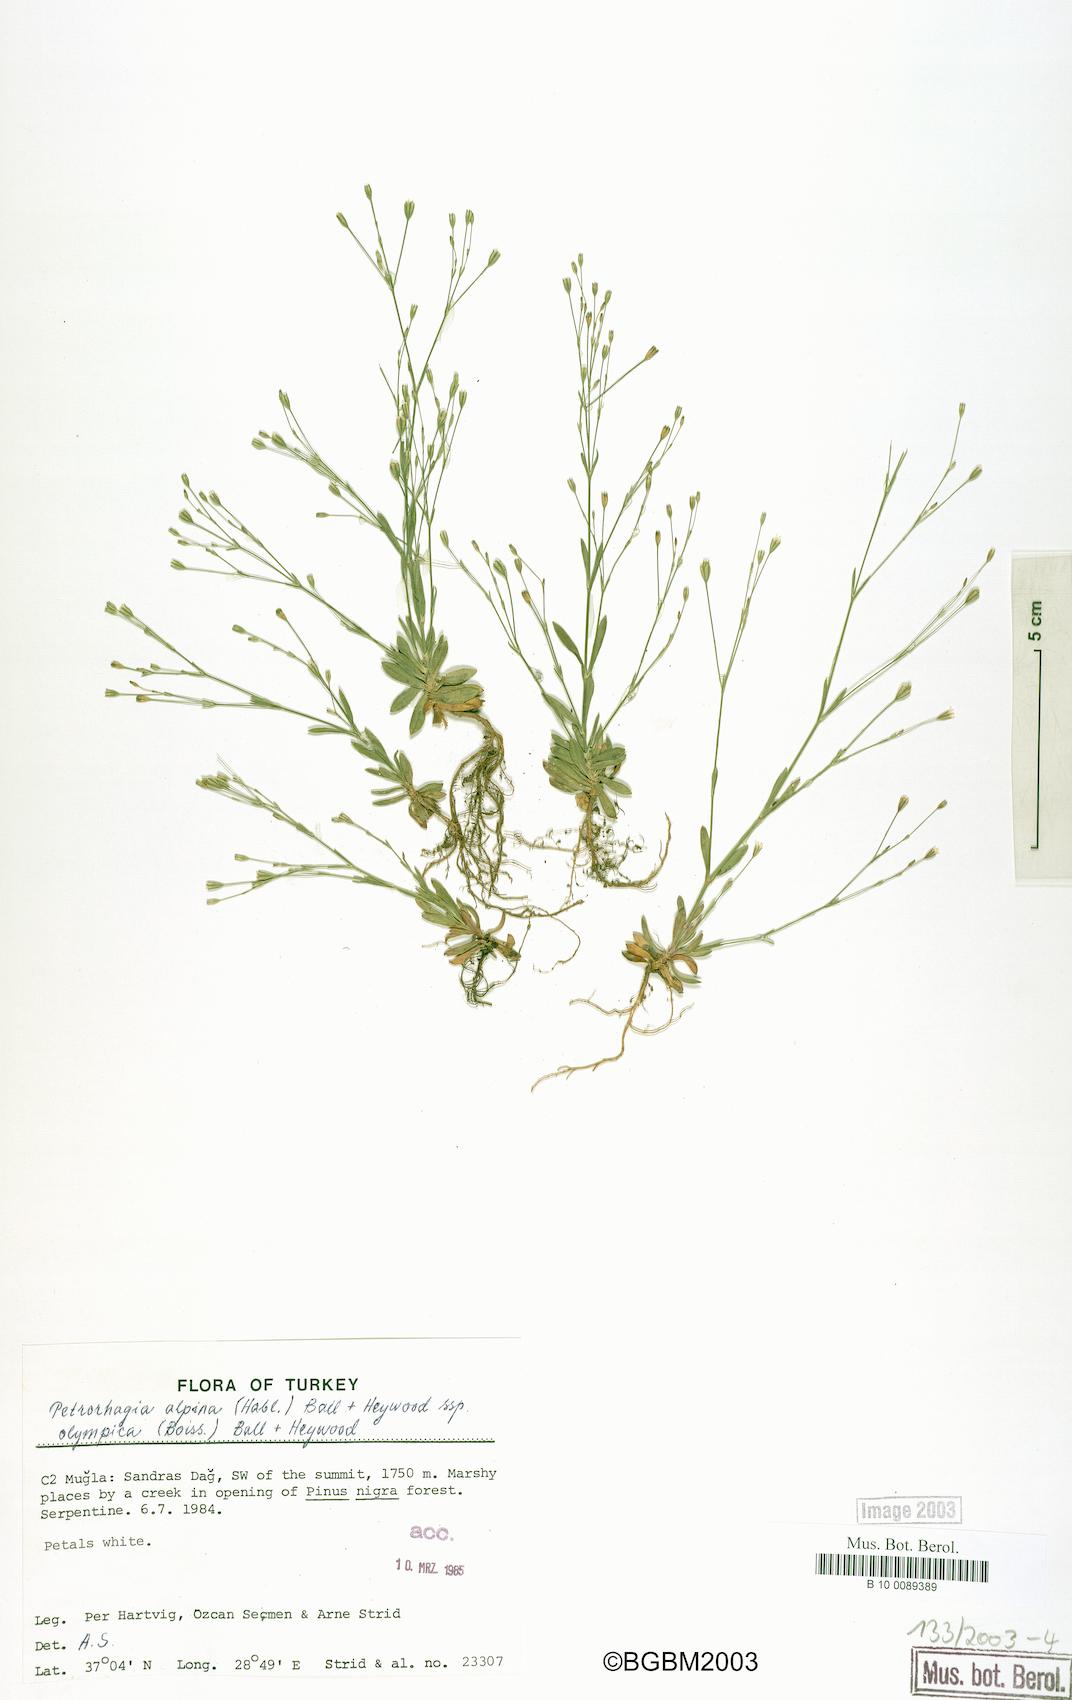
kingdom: Plantae
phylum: Tracheophyta
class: Magnoliopsida
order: Caryophyllales
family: Caryophyllaceae
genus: Petrorhagia
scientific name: Petrorhagia alpina
